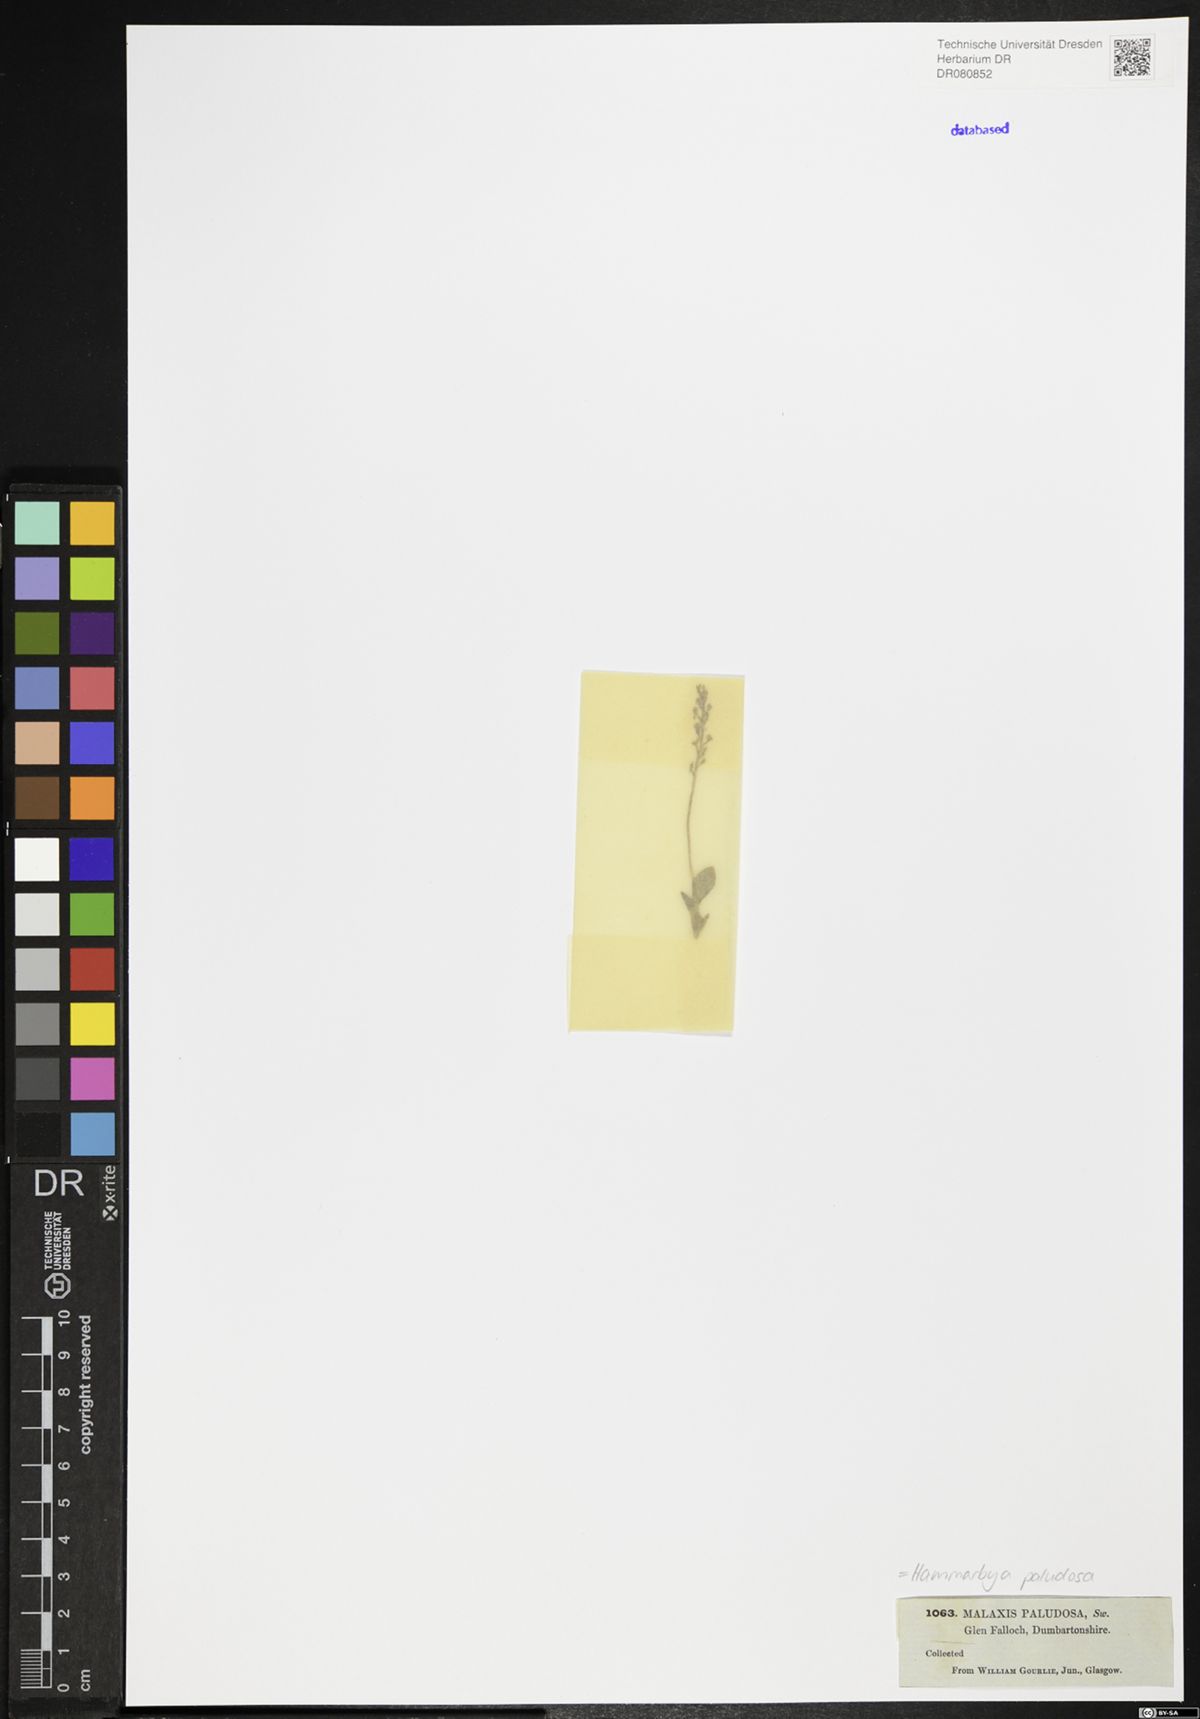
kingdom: Plantae
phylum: Tracheophyta
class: Liliopsida
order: Asparagales
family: Orchidaceae
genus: Hammarbya
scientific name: Hammarbya paludosa
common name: Bog orchid
